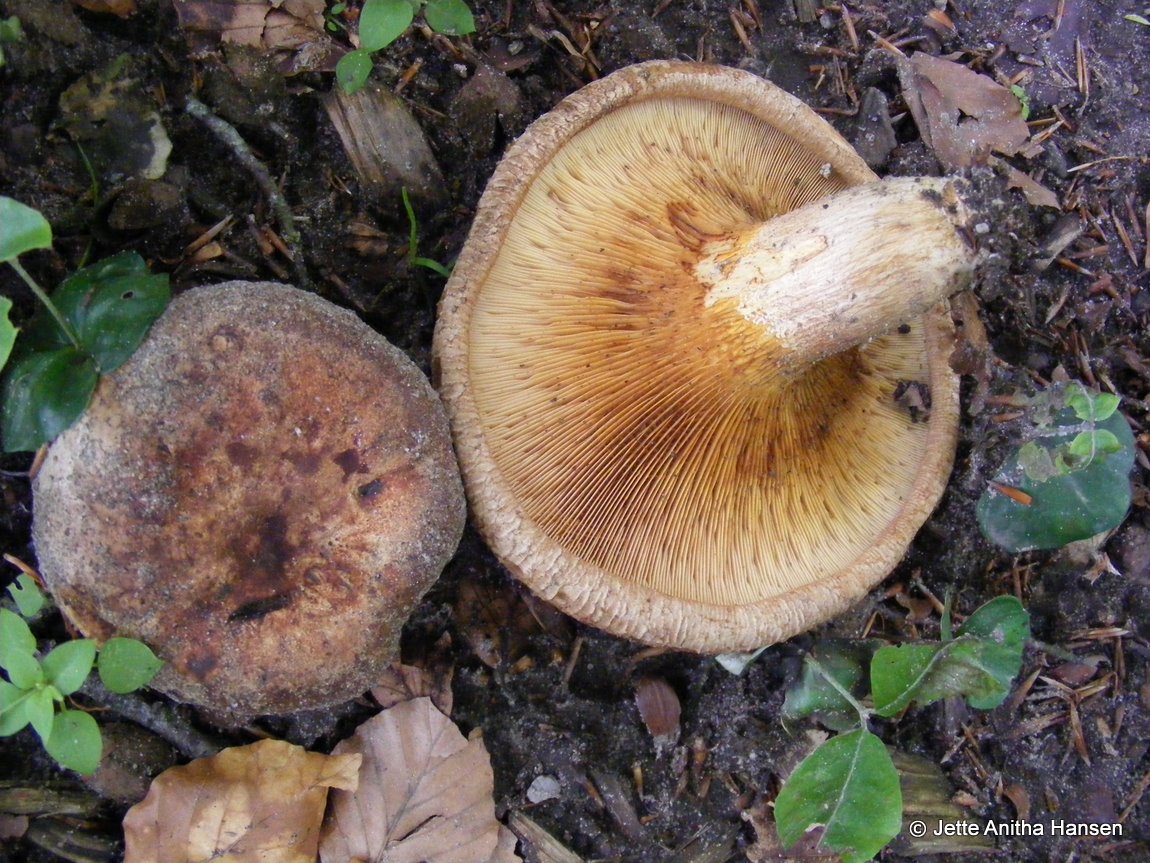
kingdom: Fungi
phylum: Basidiomycota
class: Agaricomycetes
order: Boletales
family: Paxillaceae
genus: Paxillus
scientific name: Paxillus involutus
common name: almindelig netbladhat
